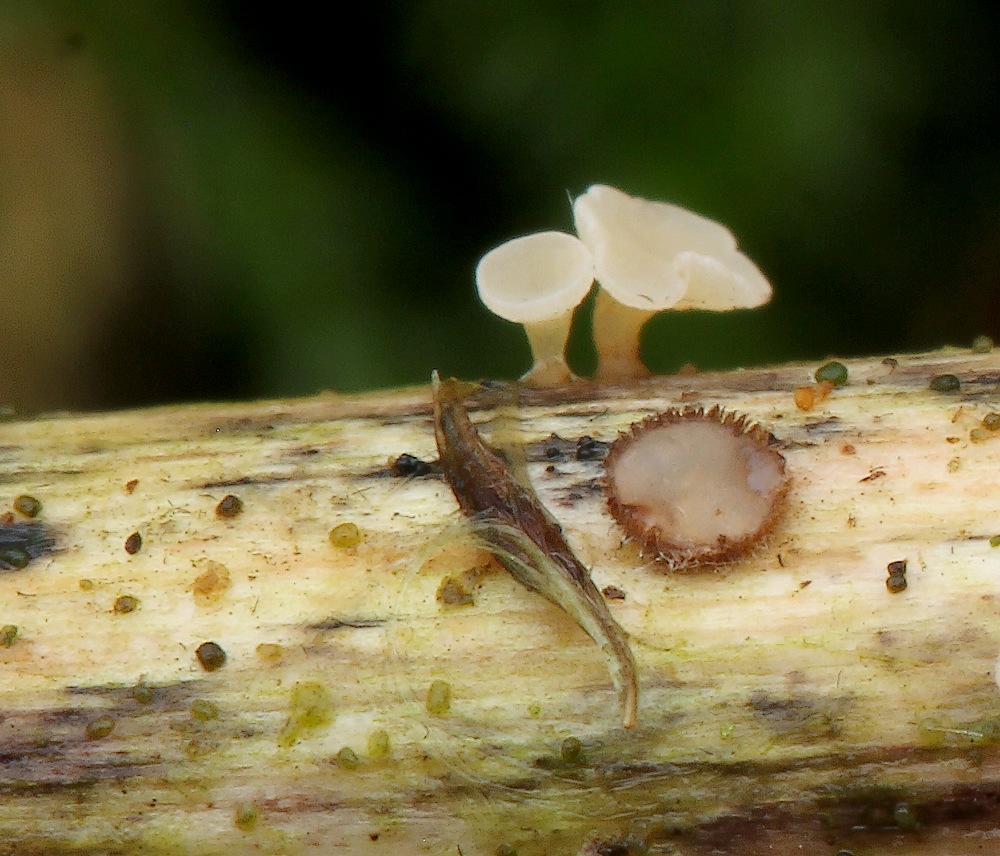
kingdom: Fungi
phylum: Ascomycota
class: Leotiomycetes
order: Helotiales
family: Hyaloscyphaceae
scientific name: Hyaloscyphaceae
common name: frynseskivefamilien
